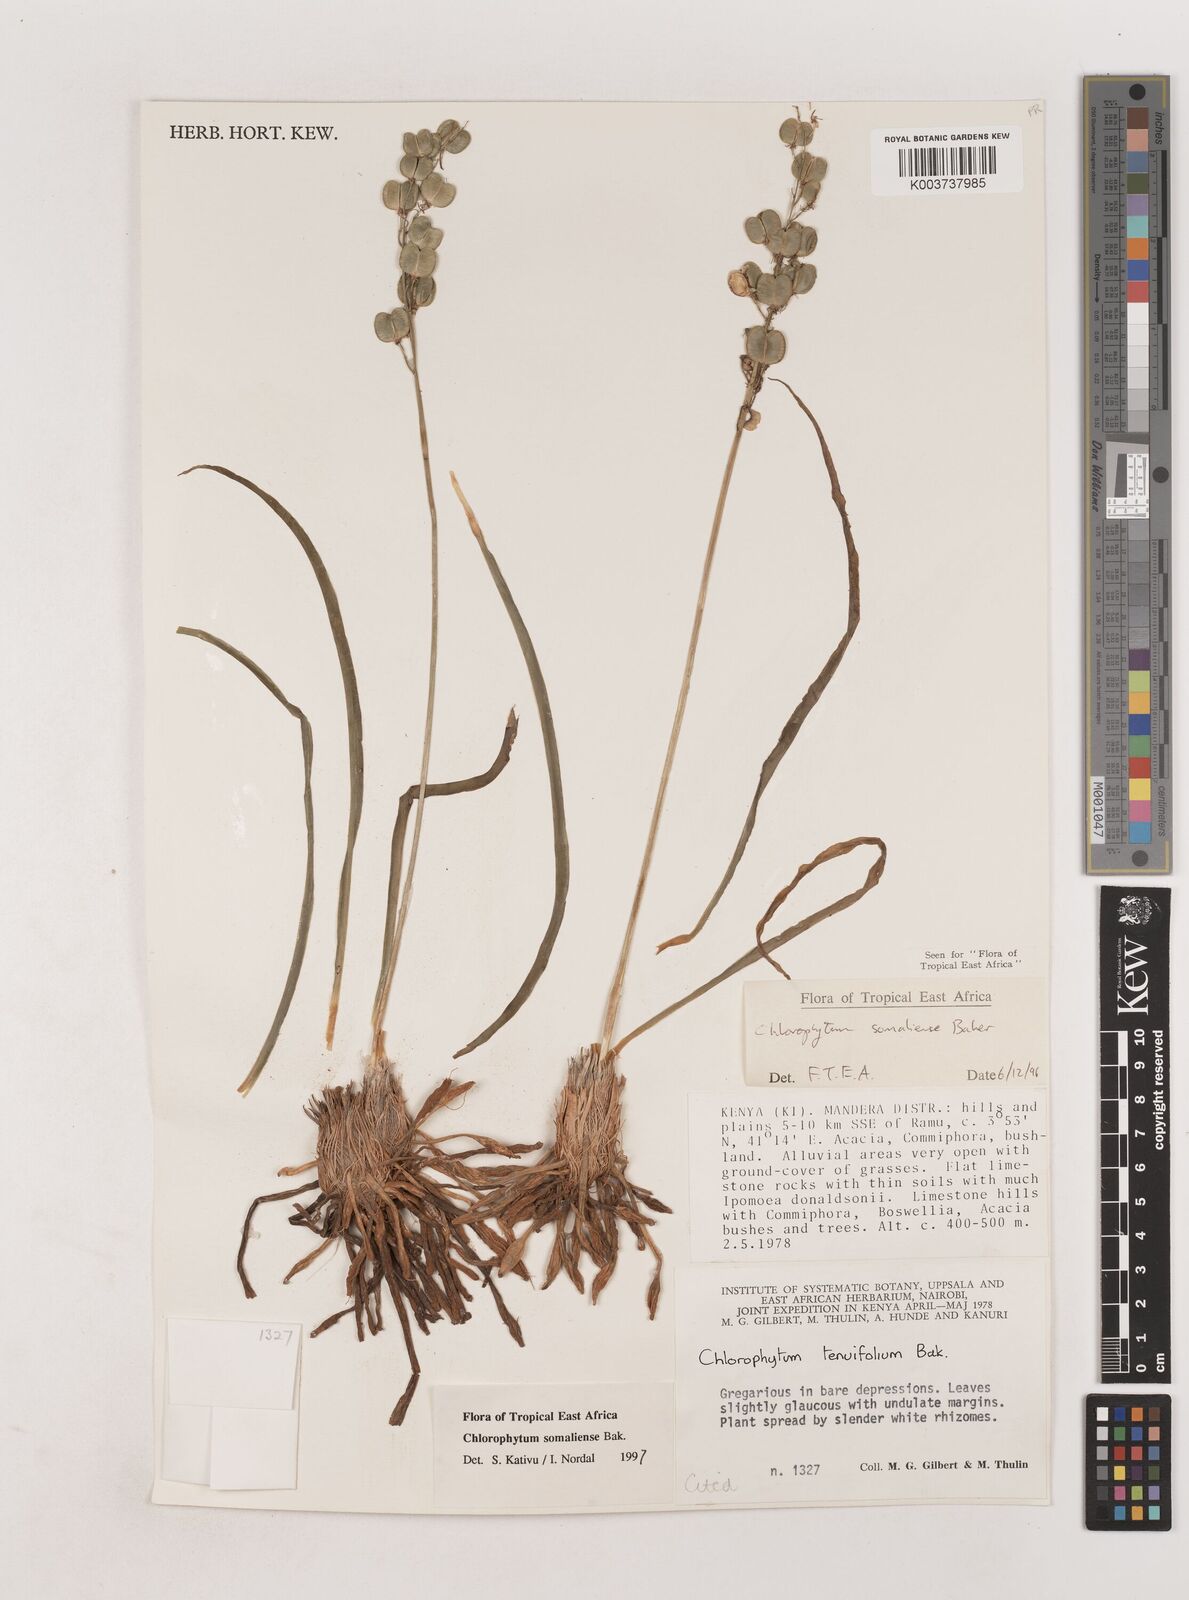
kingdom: Plantae
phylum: Tracheophyta
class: Liliopsida
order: Asparagales
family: Asparagaceae
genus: Chlorophytum
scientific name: Chlorophytum somaliense
